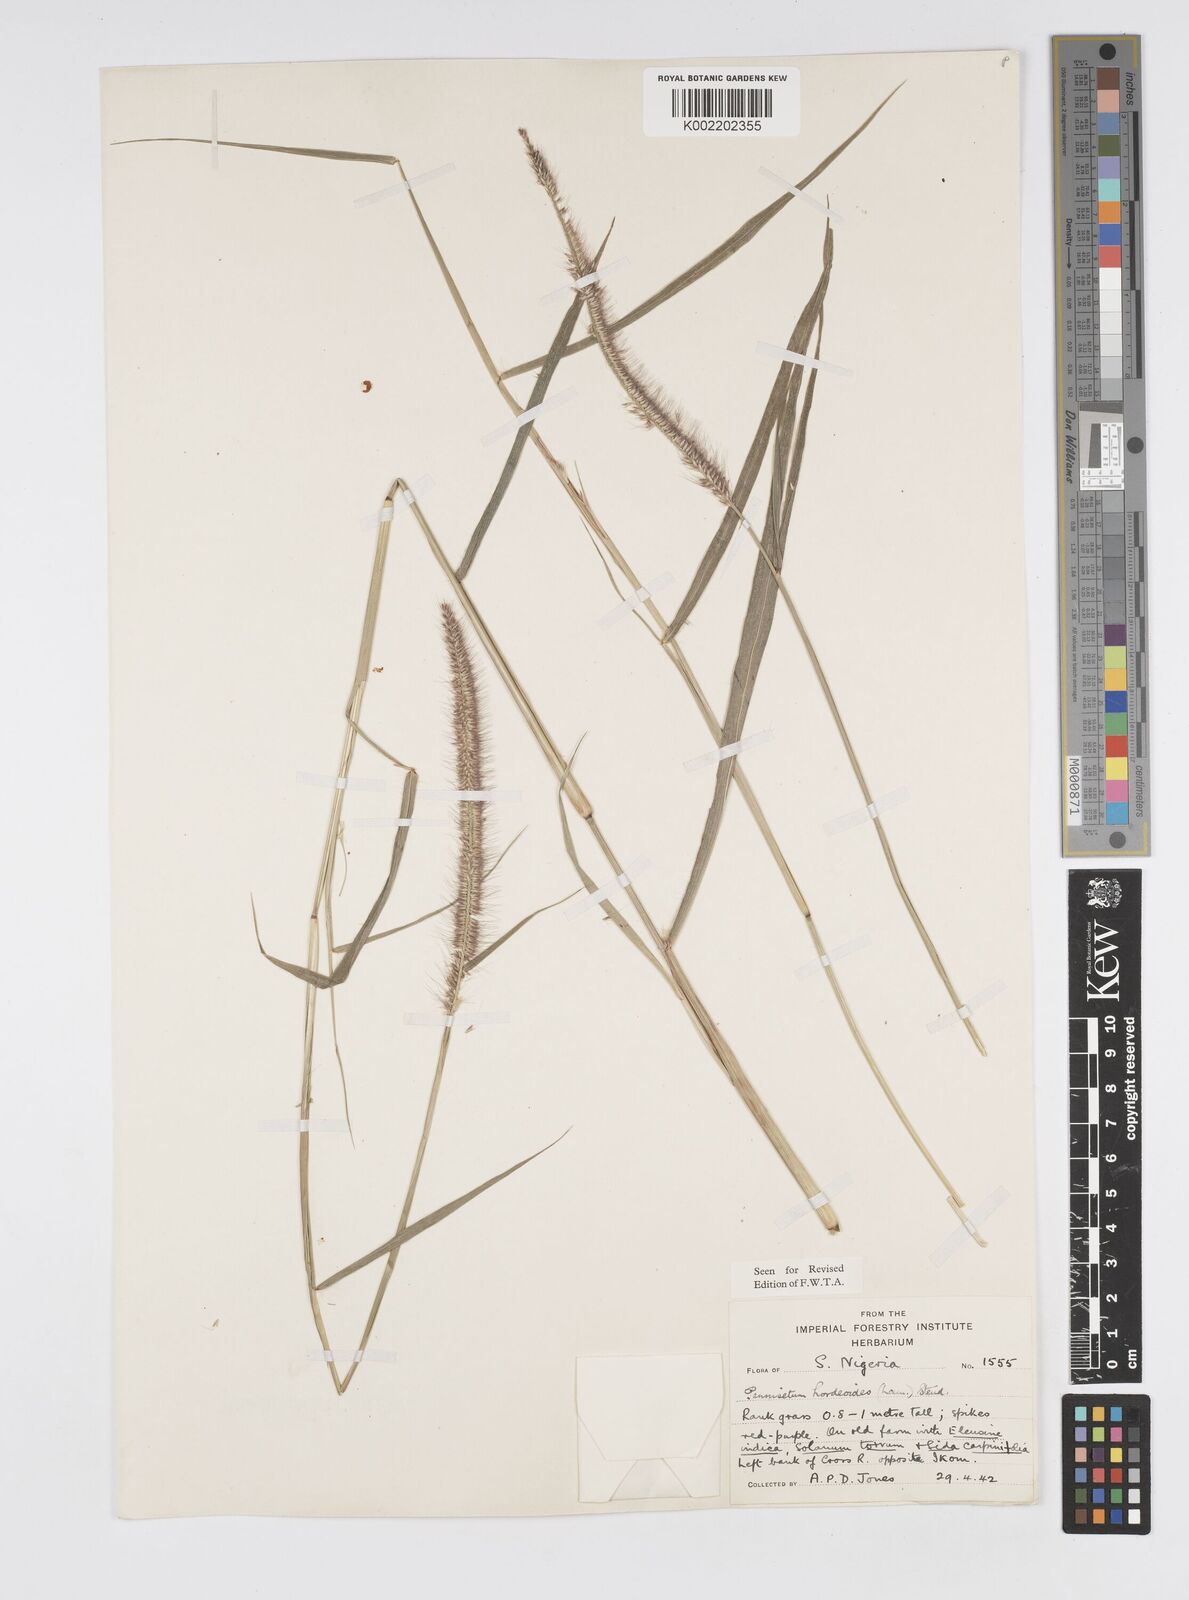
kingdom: Plantae
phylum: Tracheophyta
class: Liliopsida
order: Poales
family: Poaceae
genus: Cenchrus
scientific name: Cenchrus hordeoides
